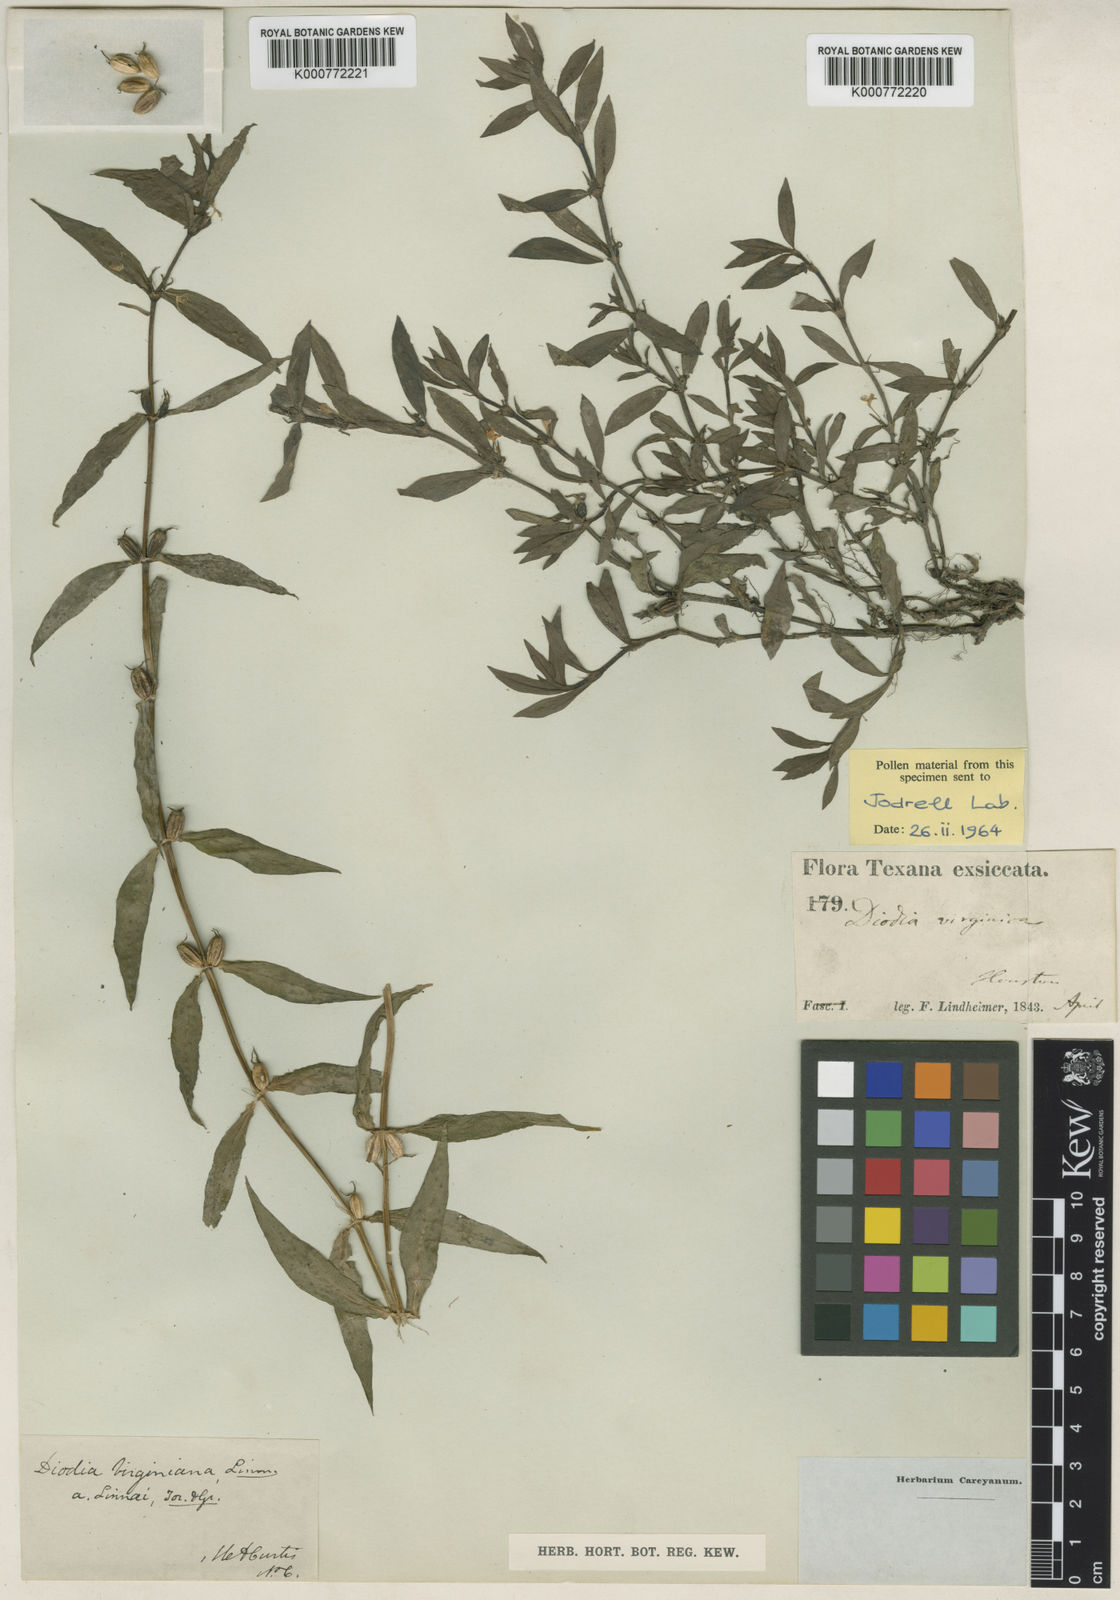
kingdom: Plantae
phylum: Tracheophyta
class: Magnoliopsida
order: Gentianales
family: Rubiaceae
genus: Diodia
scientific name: Diodia virginiana
